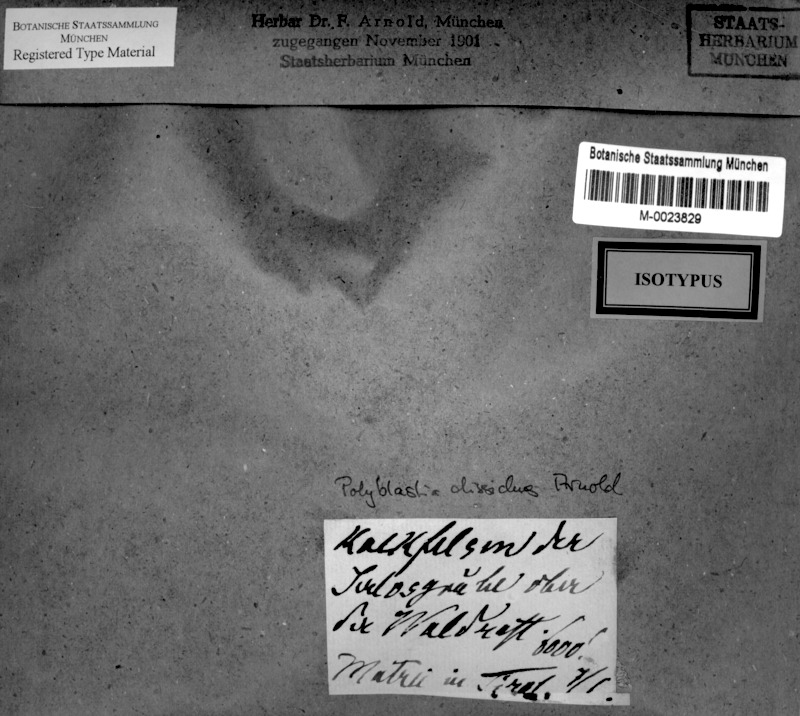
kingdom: Fungi
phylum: Ascomycota
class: Eurotiomycetes
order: Verrucariales
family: Verrucariaceae
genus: Polyblastia
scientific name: Polyblastia
